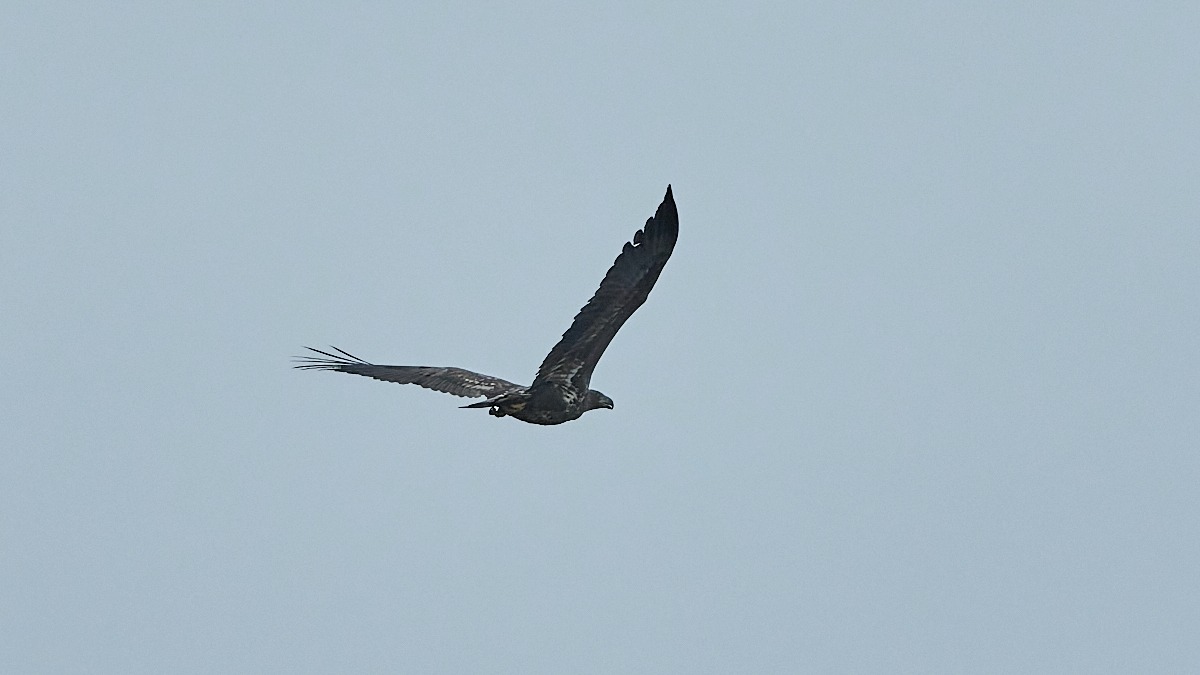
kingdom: Animalia
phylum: Chordata
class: Aves
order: Accipitriformes
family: Accipitridae
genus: Haliaeetus
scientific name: Haliaeetus albicilla
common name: Havørn
